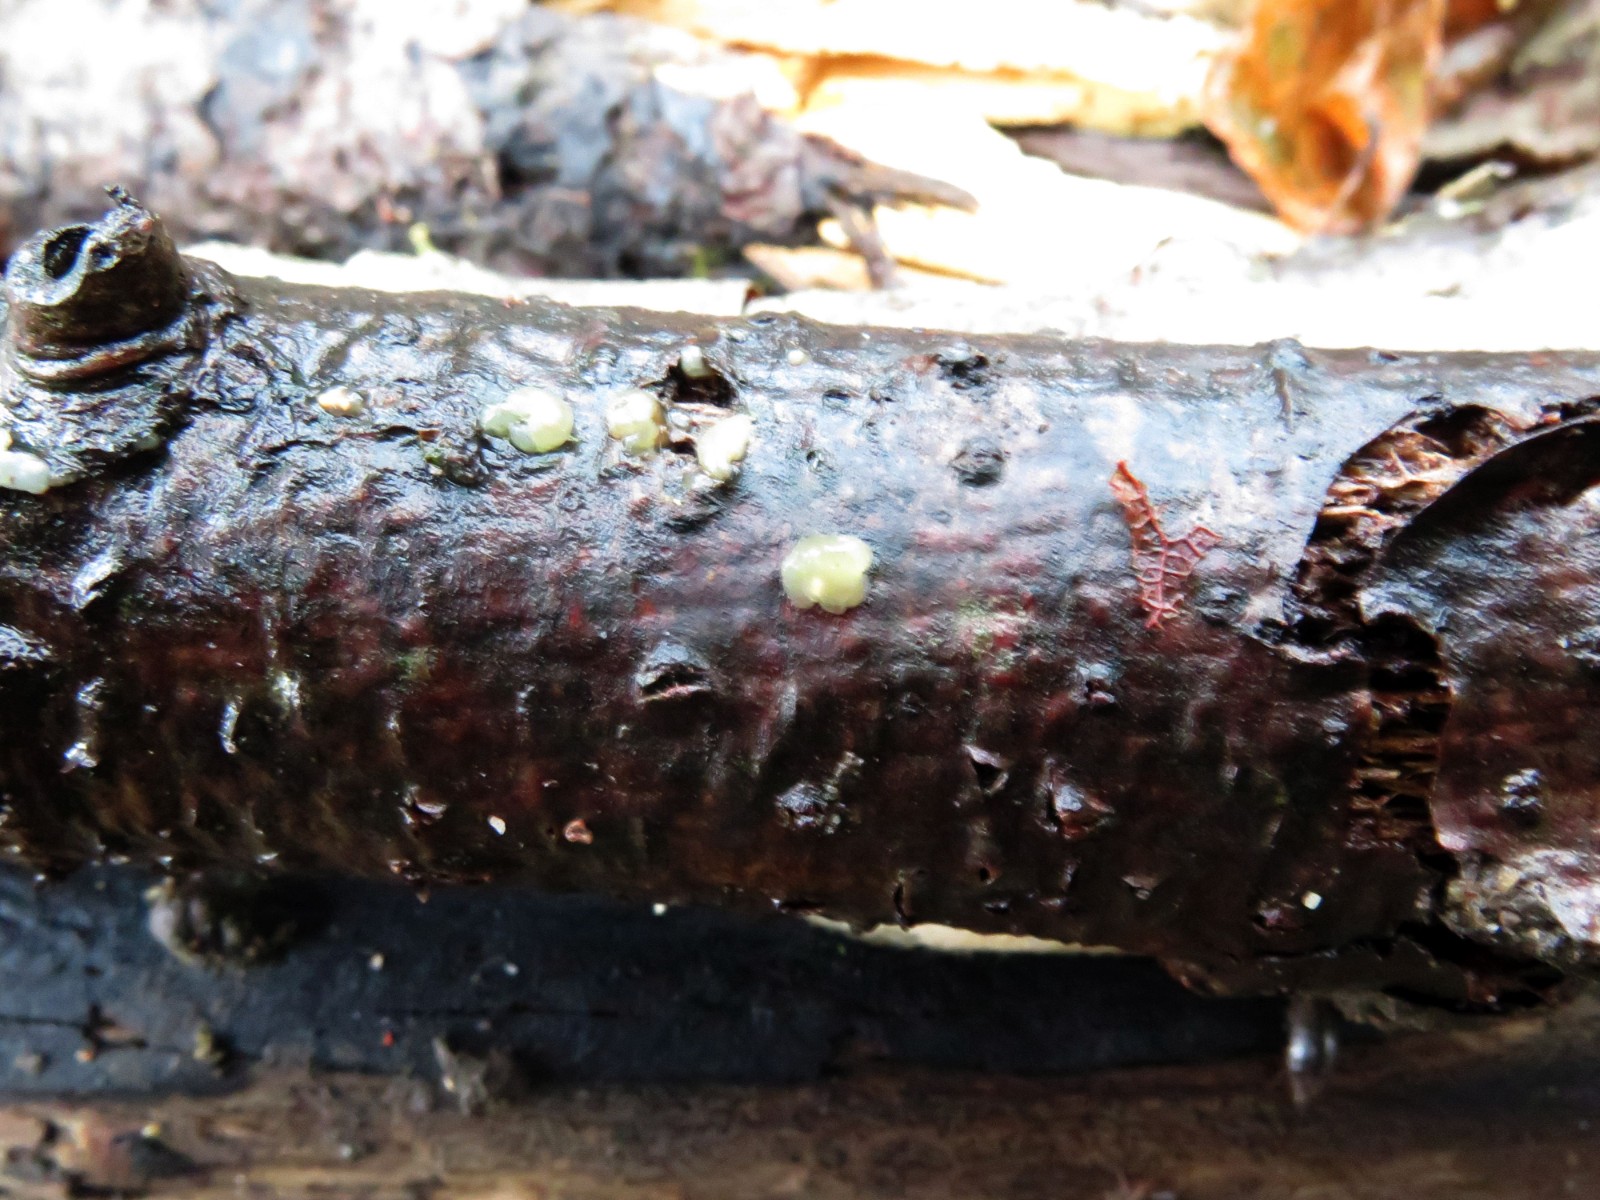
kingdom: Fungi
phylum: Basidiomycota
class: Pucciniomycetes
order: Platygloeales
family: Platygloeaceae
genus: Platygloea
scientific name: Platygloea disciformis
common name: linde-slimklat
